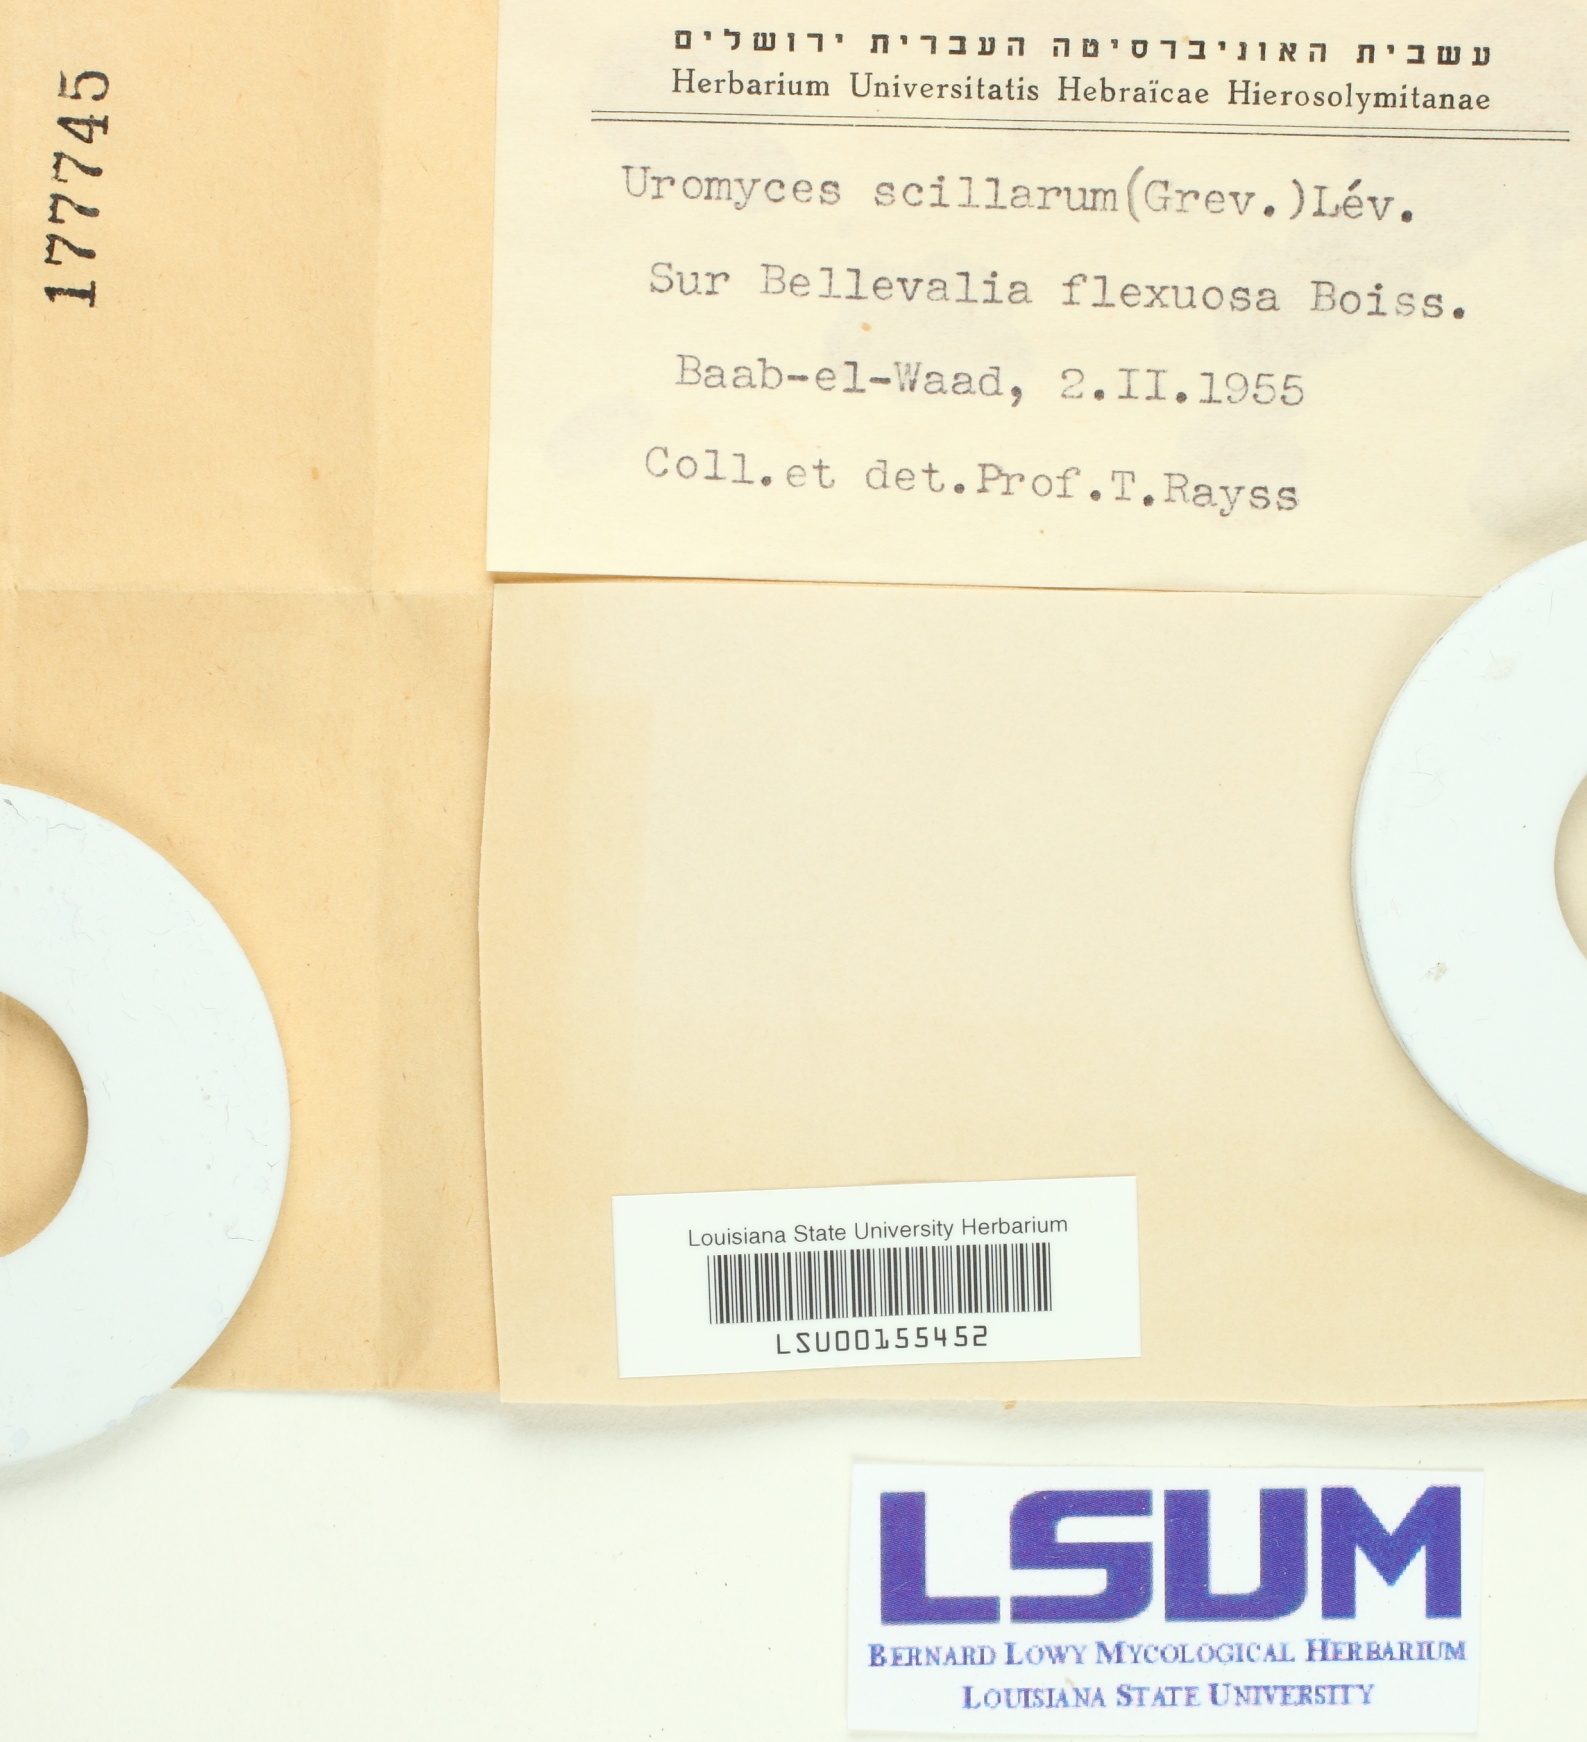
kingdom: Fungi
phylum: Basidiomycota
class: Pucciniomycetes
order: Pucciniales
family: Pucciniaceae
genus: Uromyces
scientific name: Uromyces muscari
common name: Bluebell rust
